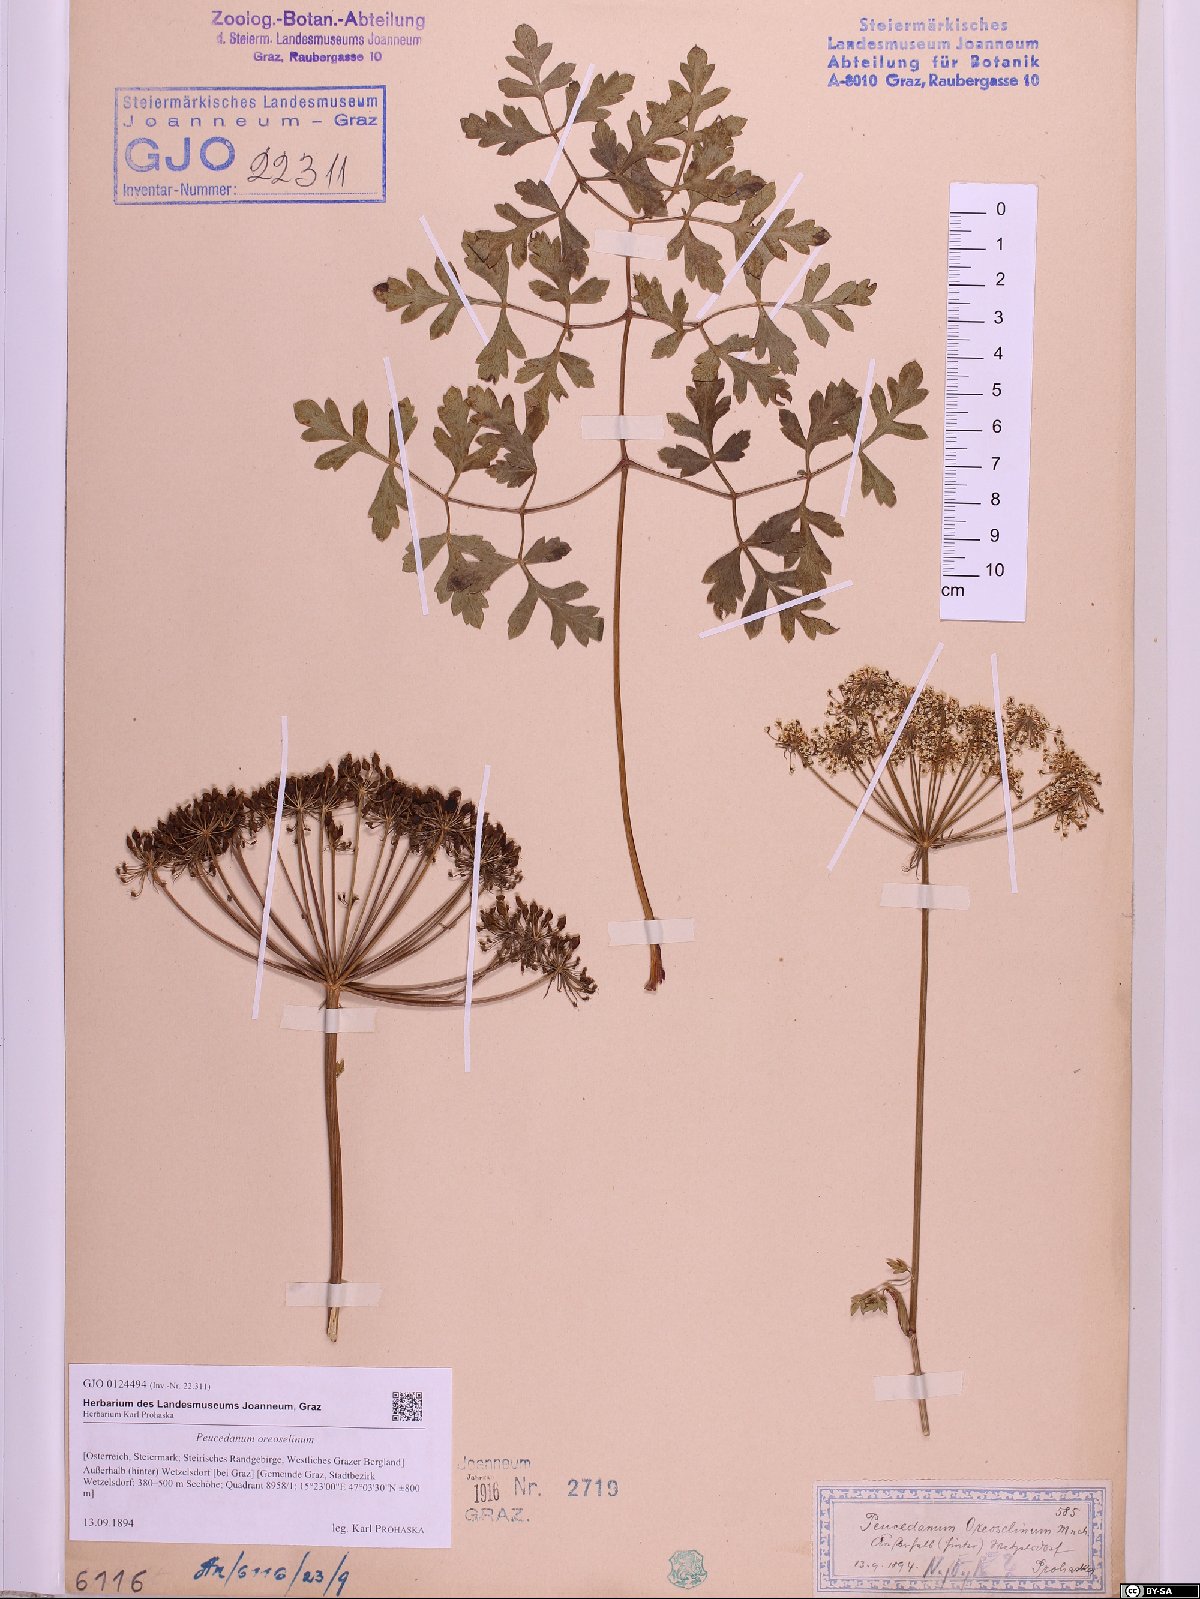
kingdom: Plantae
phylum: Tracheophyta
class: Magnoliopsida
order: Apiales
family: Apiaceae
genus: Oreoselinum
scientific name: Oreoselinum nigrum
